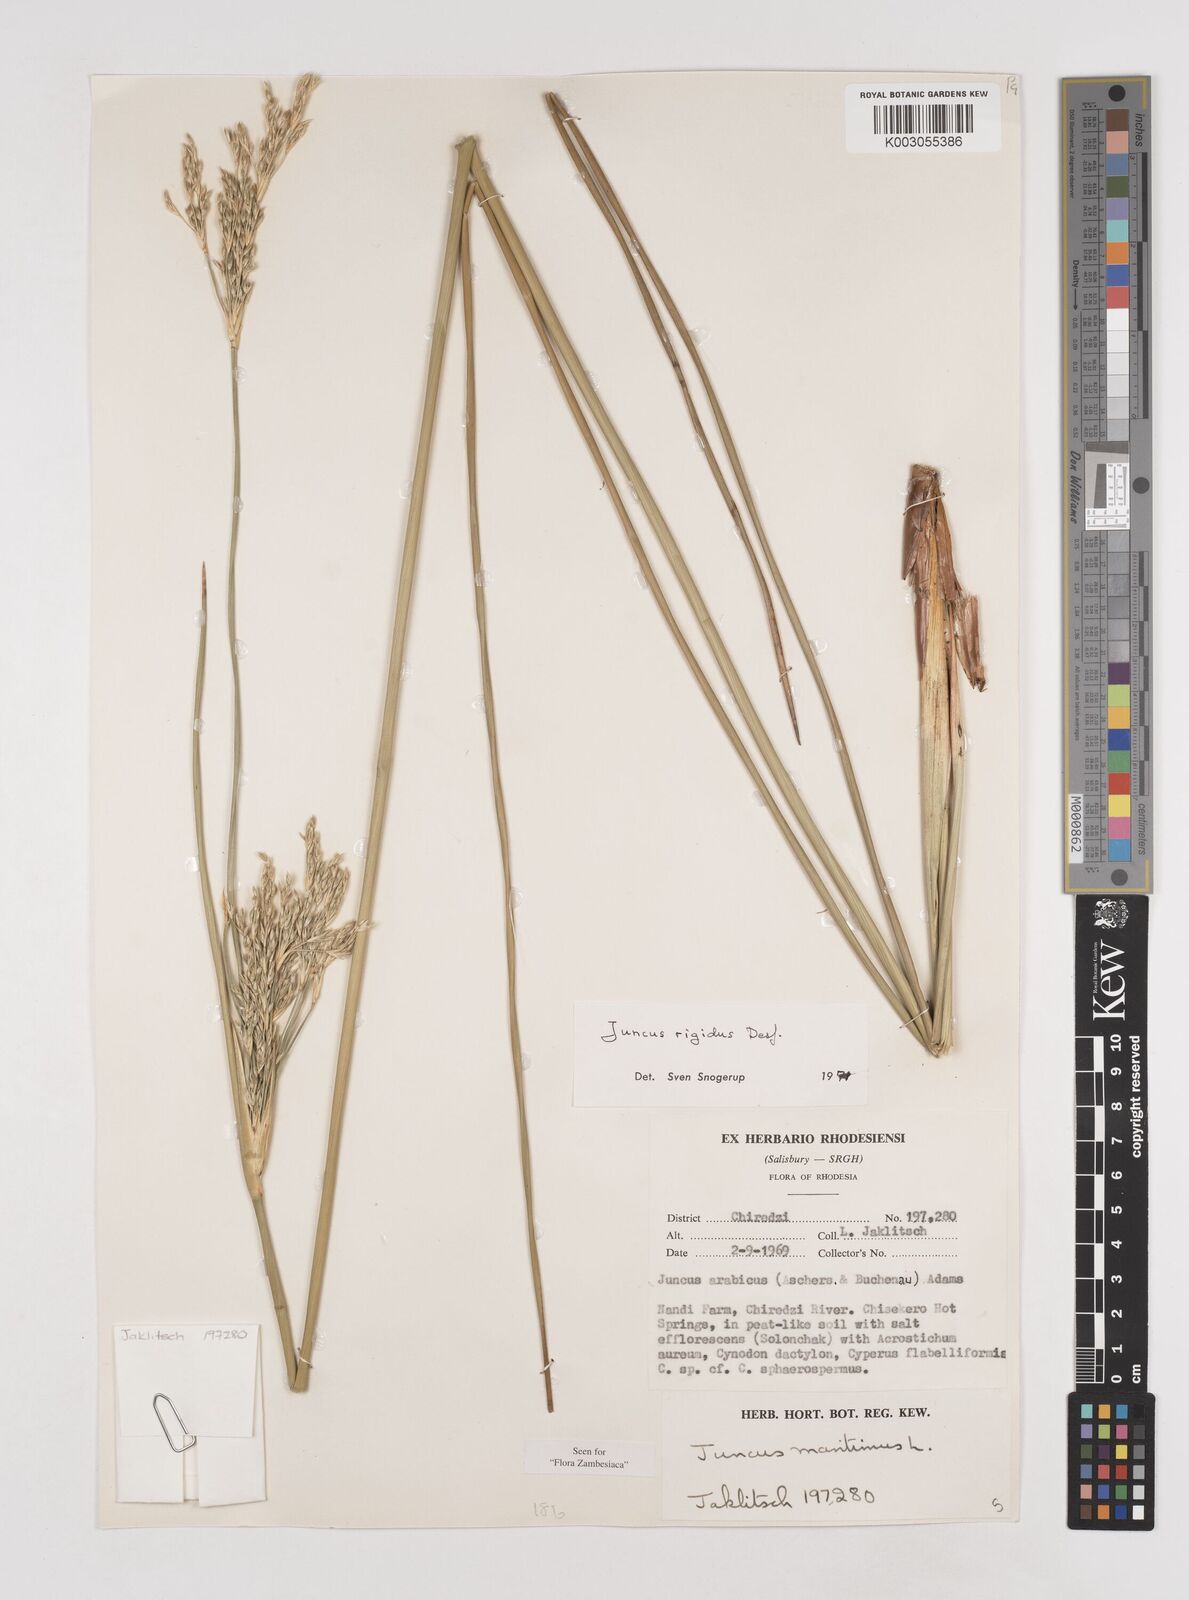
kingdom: Plantae
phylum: Tracheophyta
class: Liliopsida
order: Poales
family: Juncaceae
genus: Juncus
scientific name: Juncus rigidus
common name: Hard sea rush
